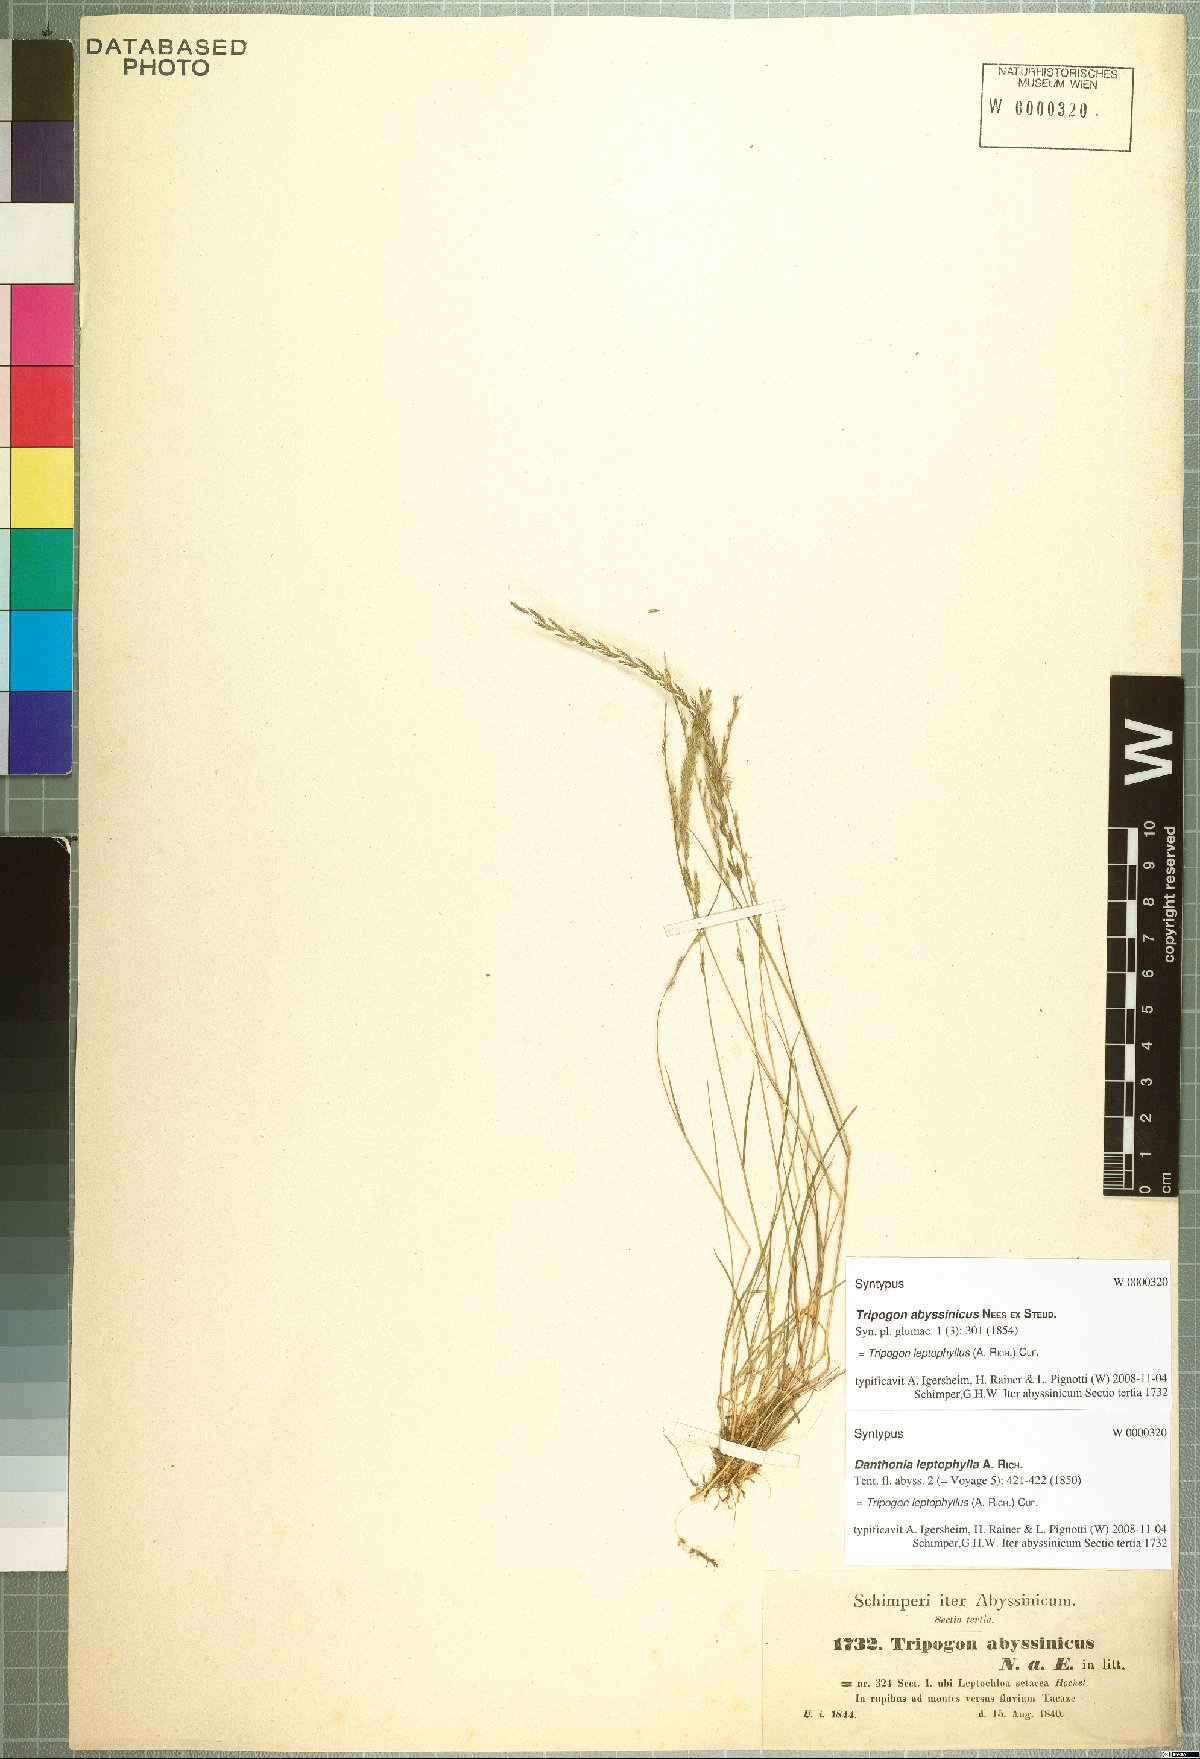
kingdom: Plantae
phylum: Tracheophyta
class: Liliopsida
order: Poales
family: Poaceae
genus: Tripogon
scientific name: Tripogon leptophyllus
